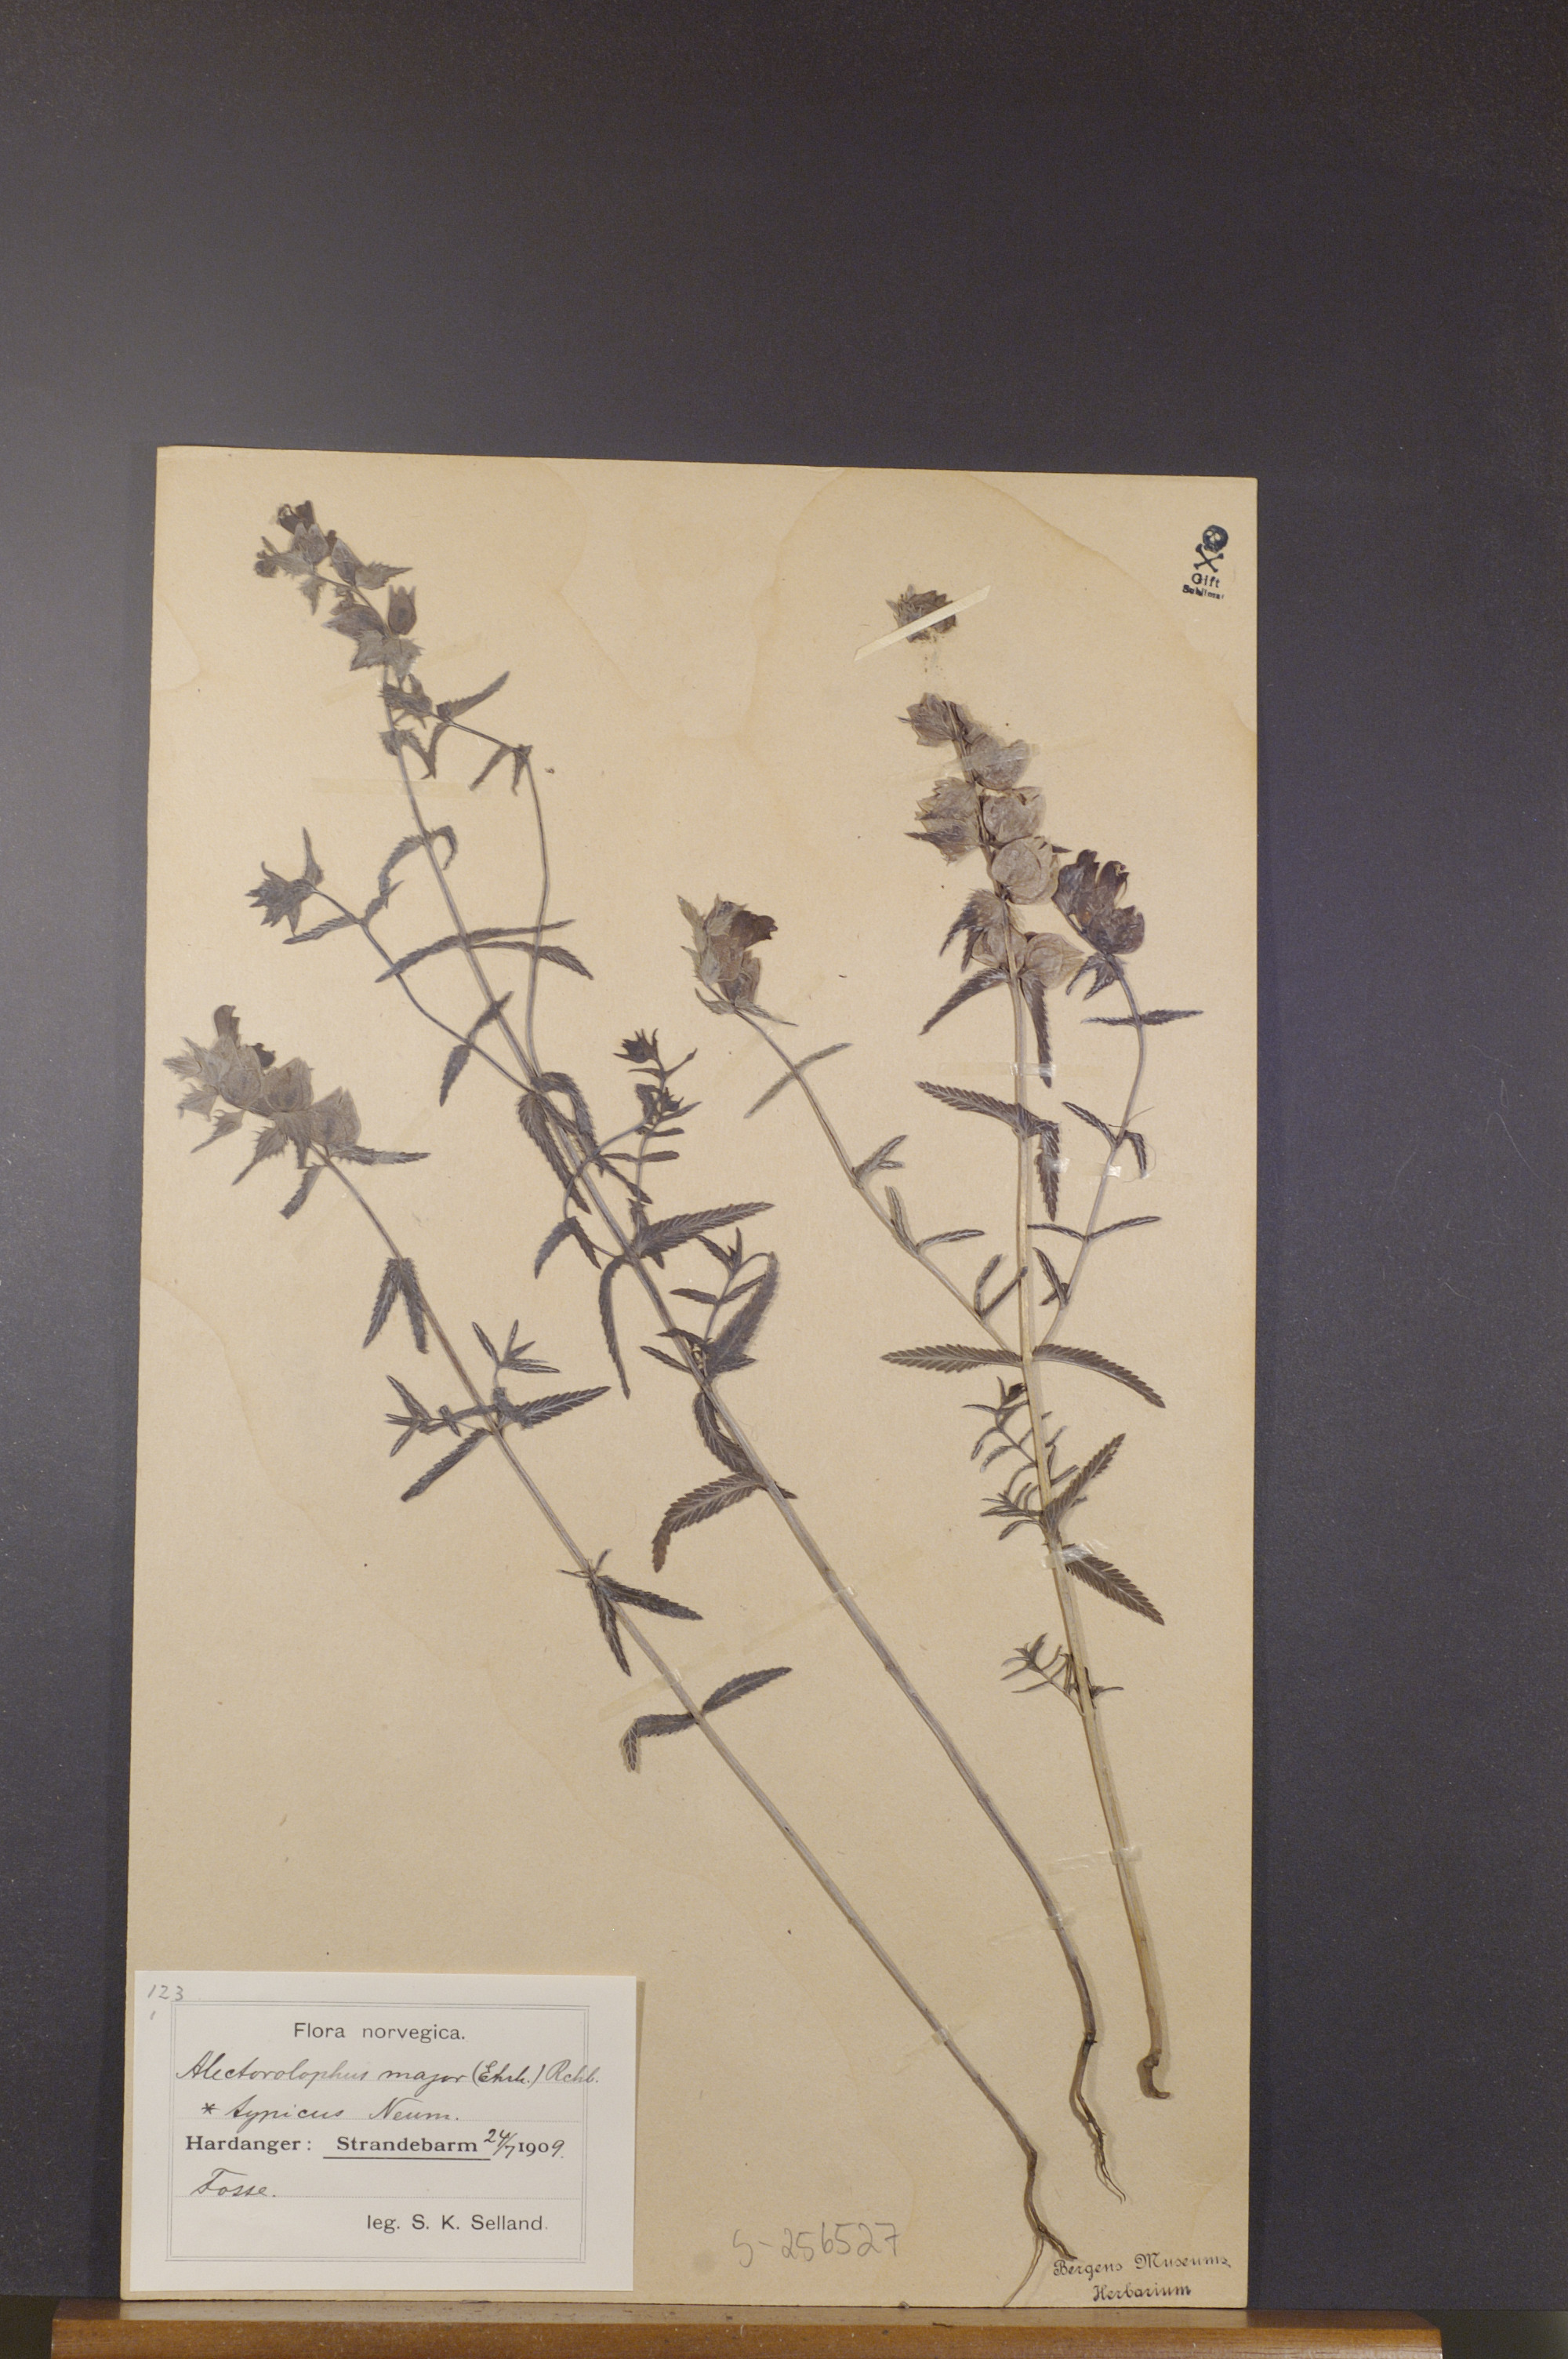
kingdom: Plantae
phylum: Tracheophyta
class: Magnoliopsida
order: Lamiales
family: Orobanchaceae
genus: Rhinanthus
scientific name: Rhinanthus serotinus
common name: Late-flowering yellow rattle
